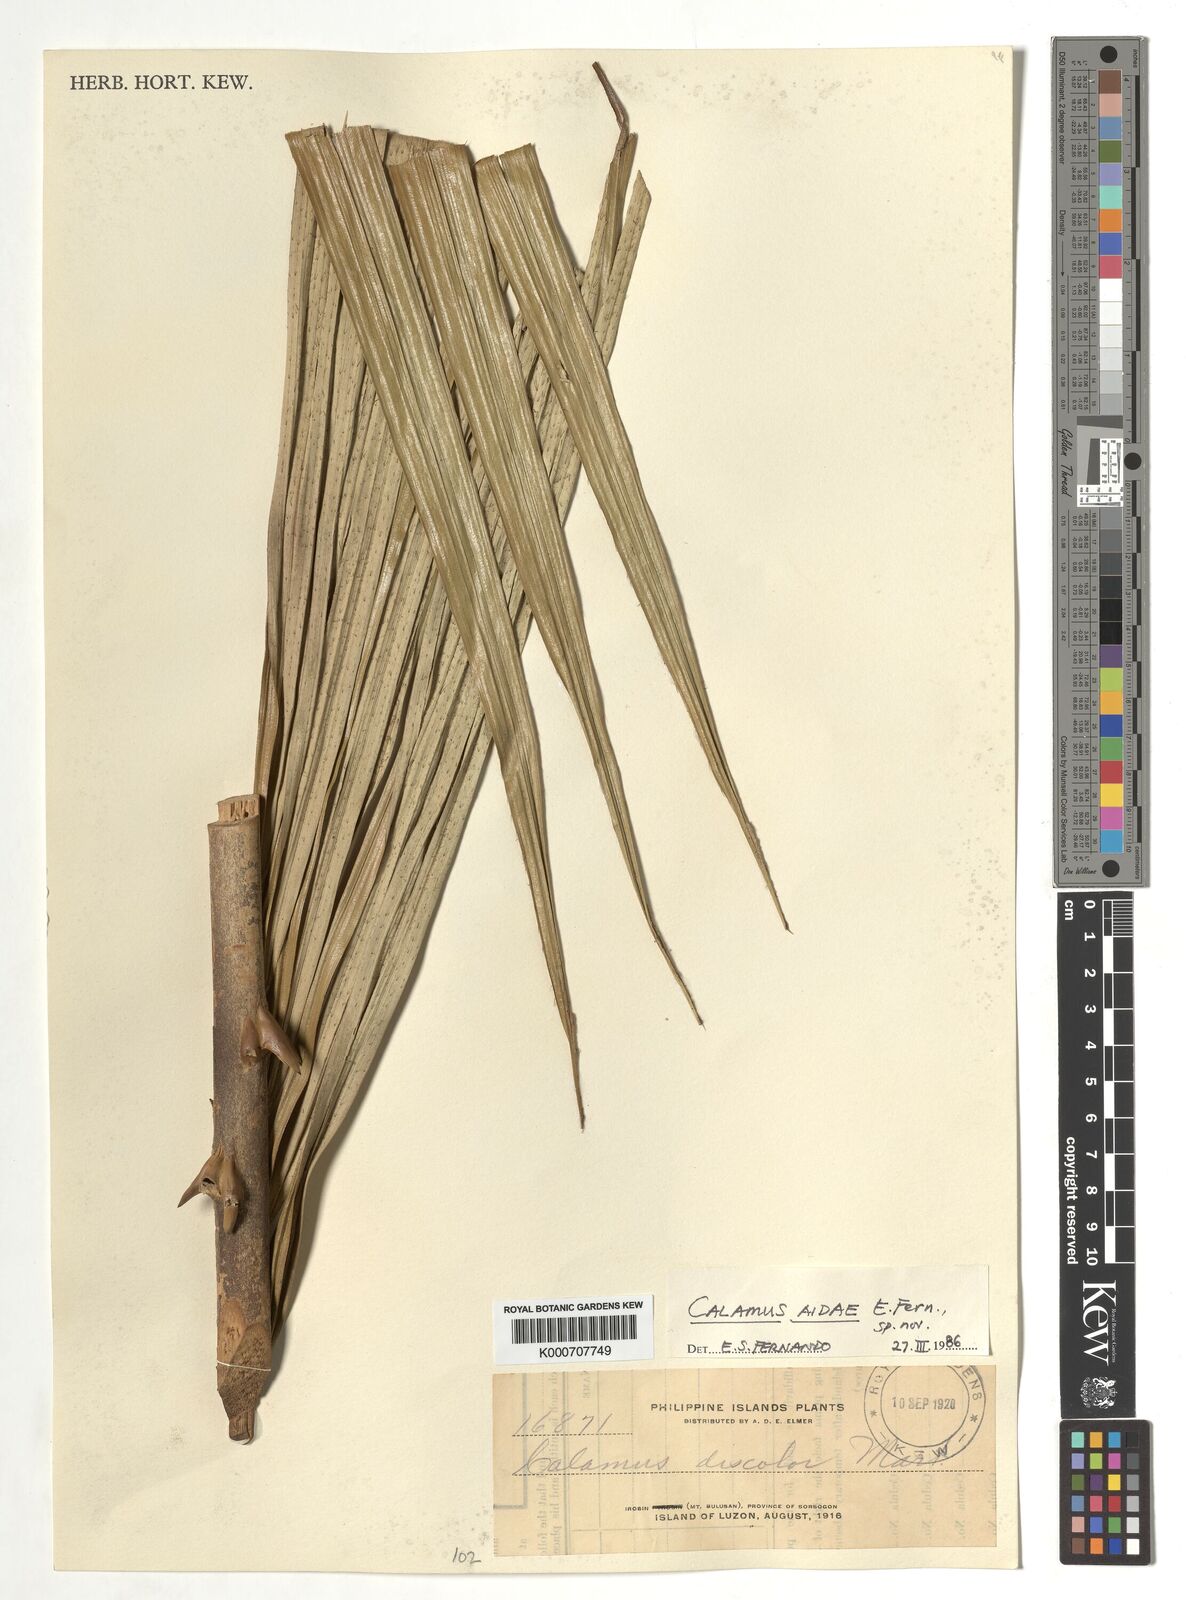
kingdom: Plantae
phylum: Tracheophyta
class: Liliopsida
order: Arecales
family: Arecaceae
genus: Calamus
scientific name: Calamus aidae
